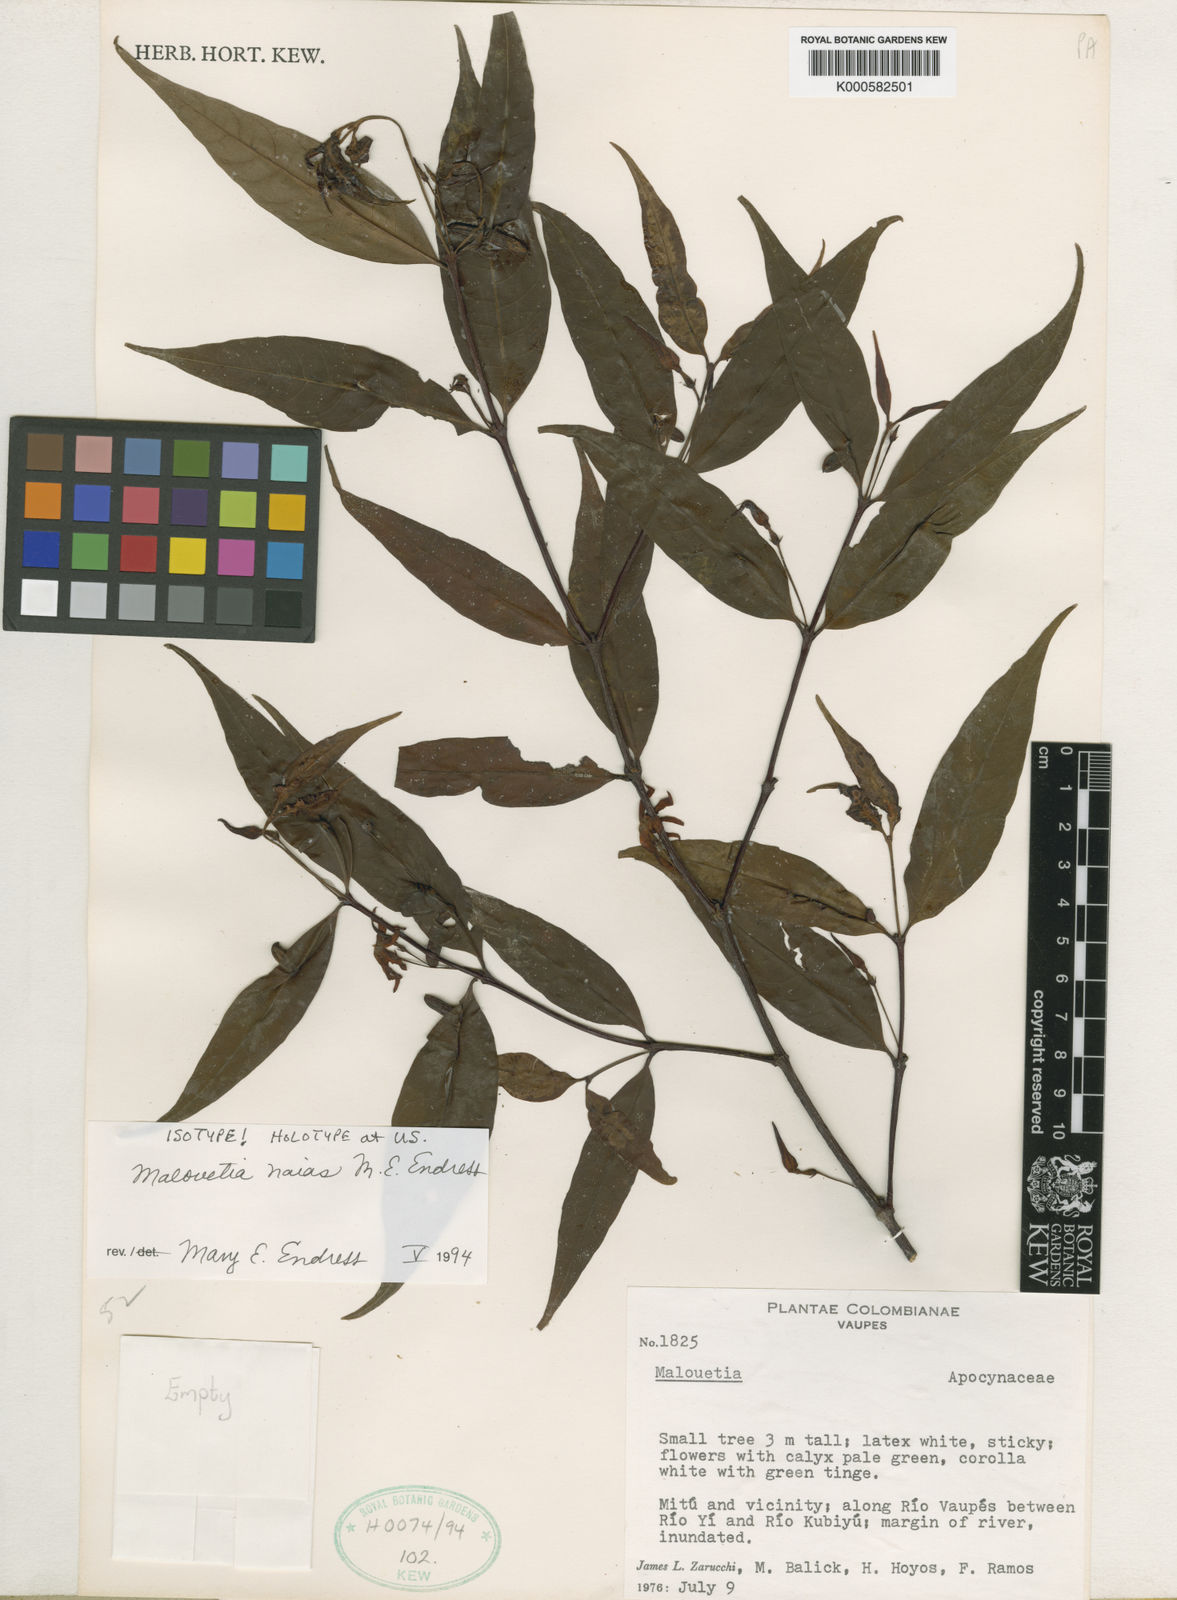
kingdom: Plantae
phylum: Tracheophyta
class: Magnoliopsida
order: Gentianales
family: Apocynaceae
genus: Malouetia
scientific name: Malouetia naias
